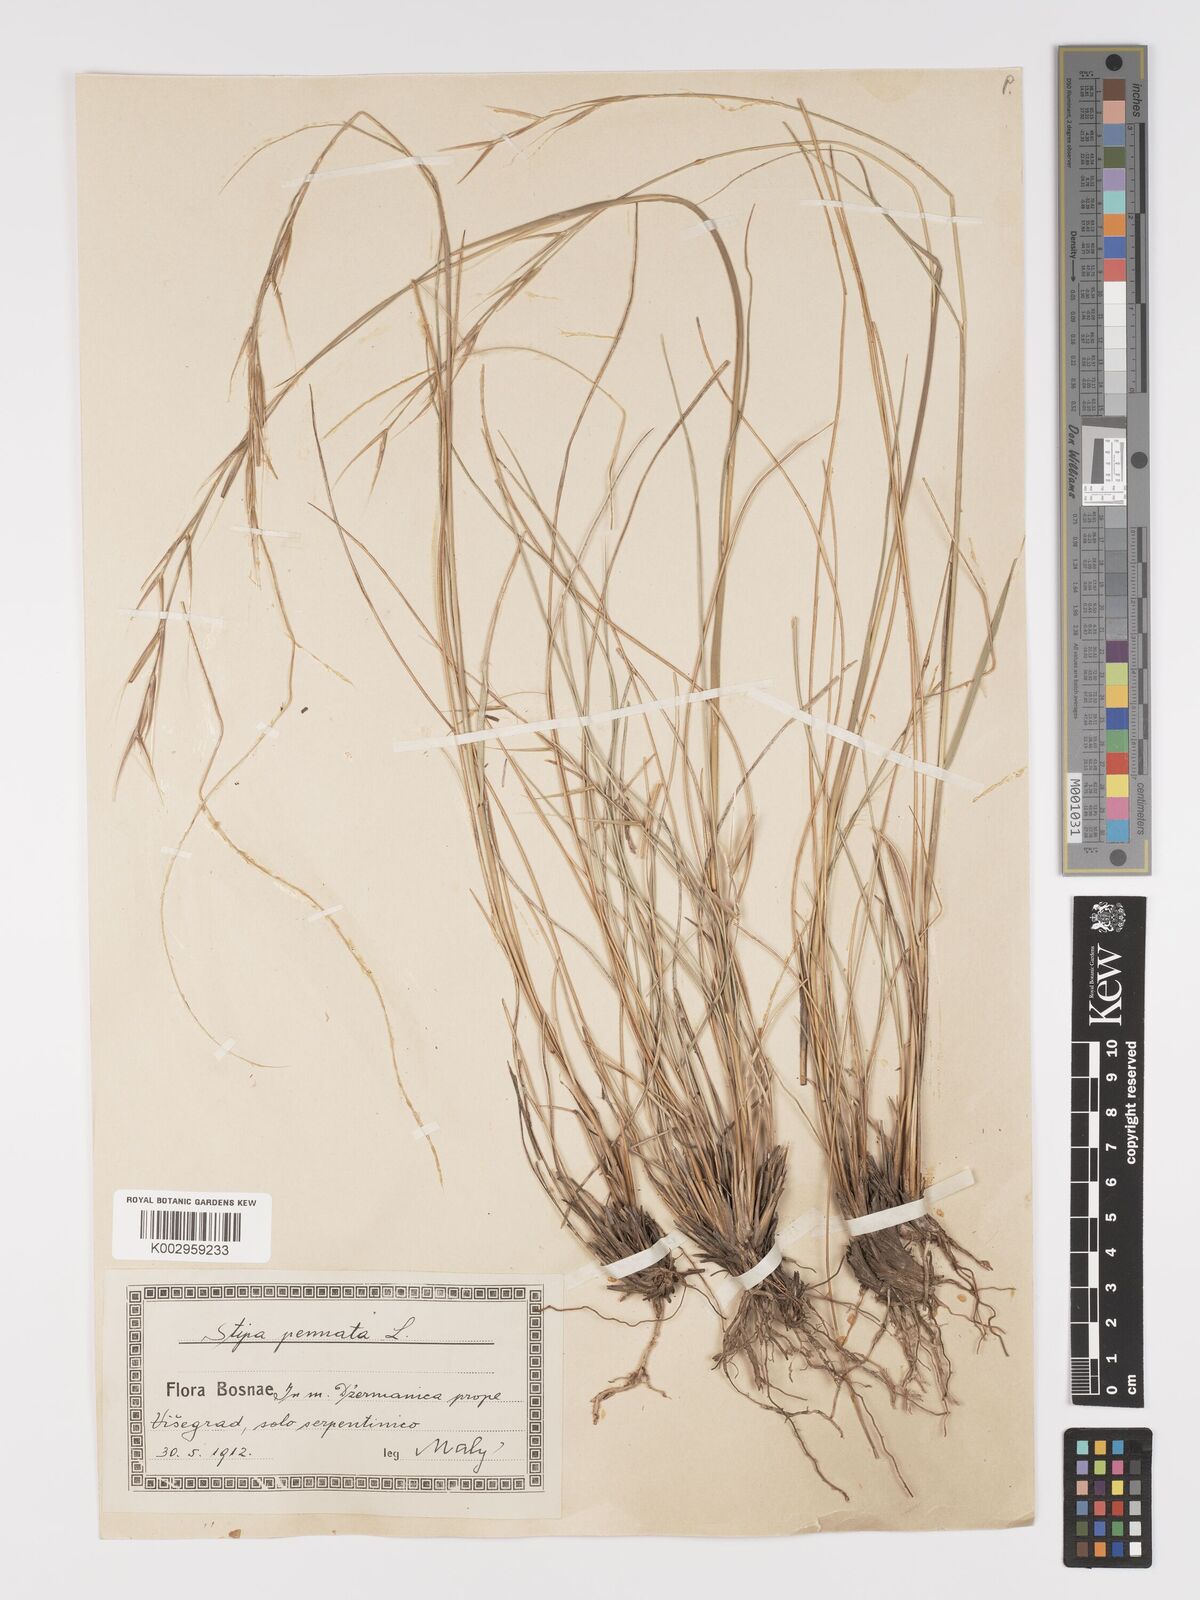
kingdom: Plantae
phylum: Tracheophyta
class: Liliopsida
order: Poales
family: Poaceae
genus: Stipa
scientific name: Stipa pennata
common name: European feather grass
